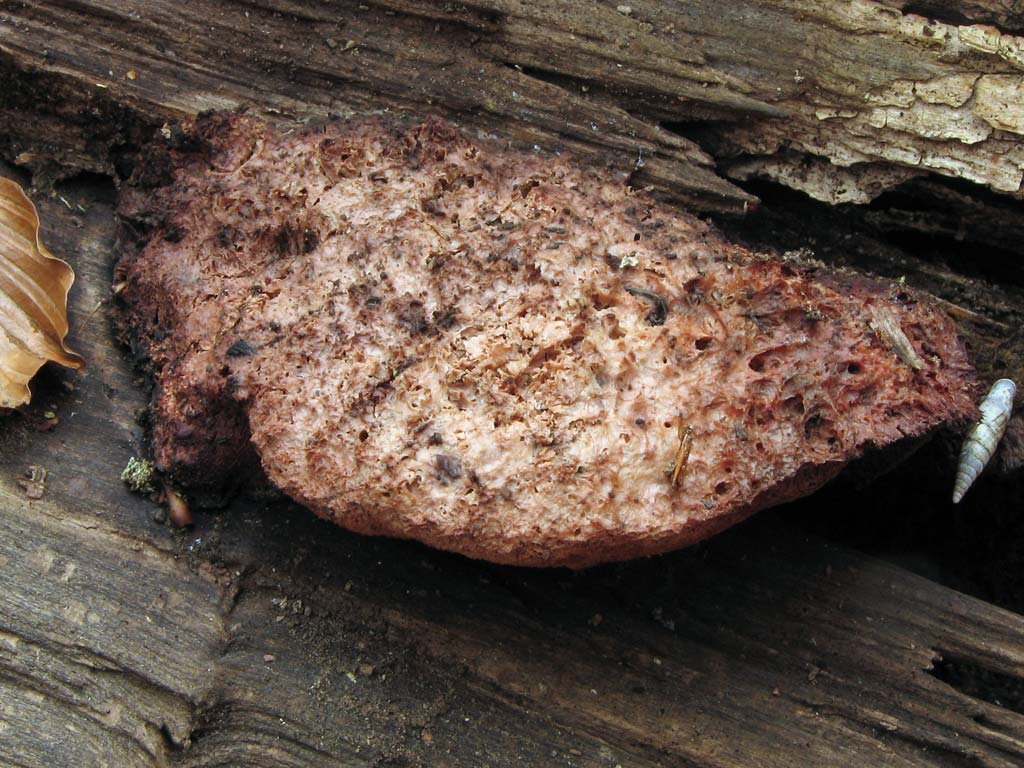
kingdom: Fungi
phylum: Basidiomycota
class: Agaricomycetes
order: Polyporales
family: Meruliaceae
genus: Pappia
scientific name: Pappia fissilis
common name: rosa fedtporesvamp
